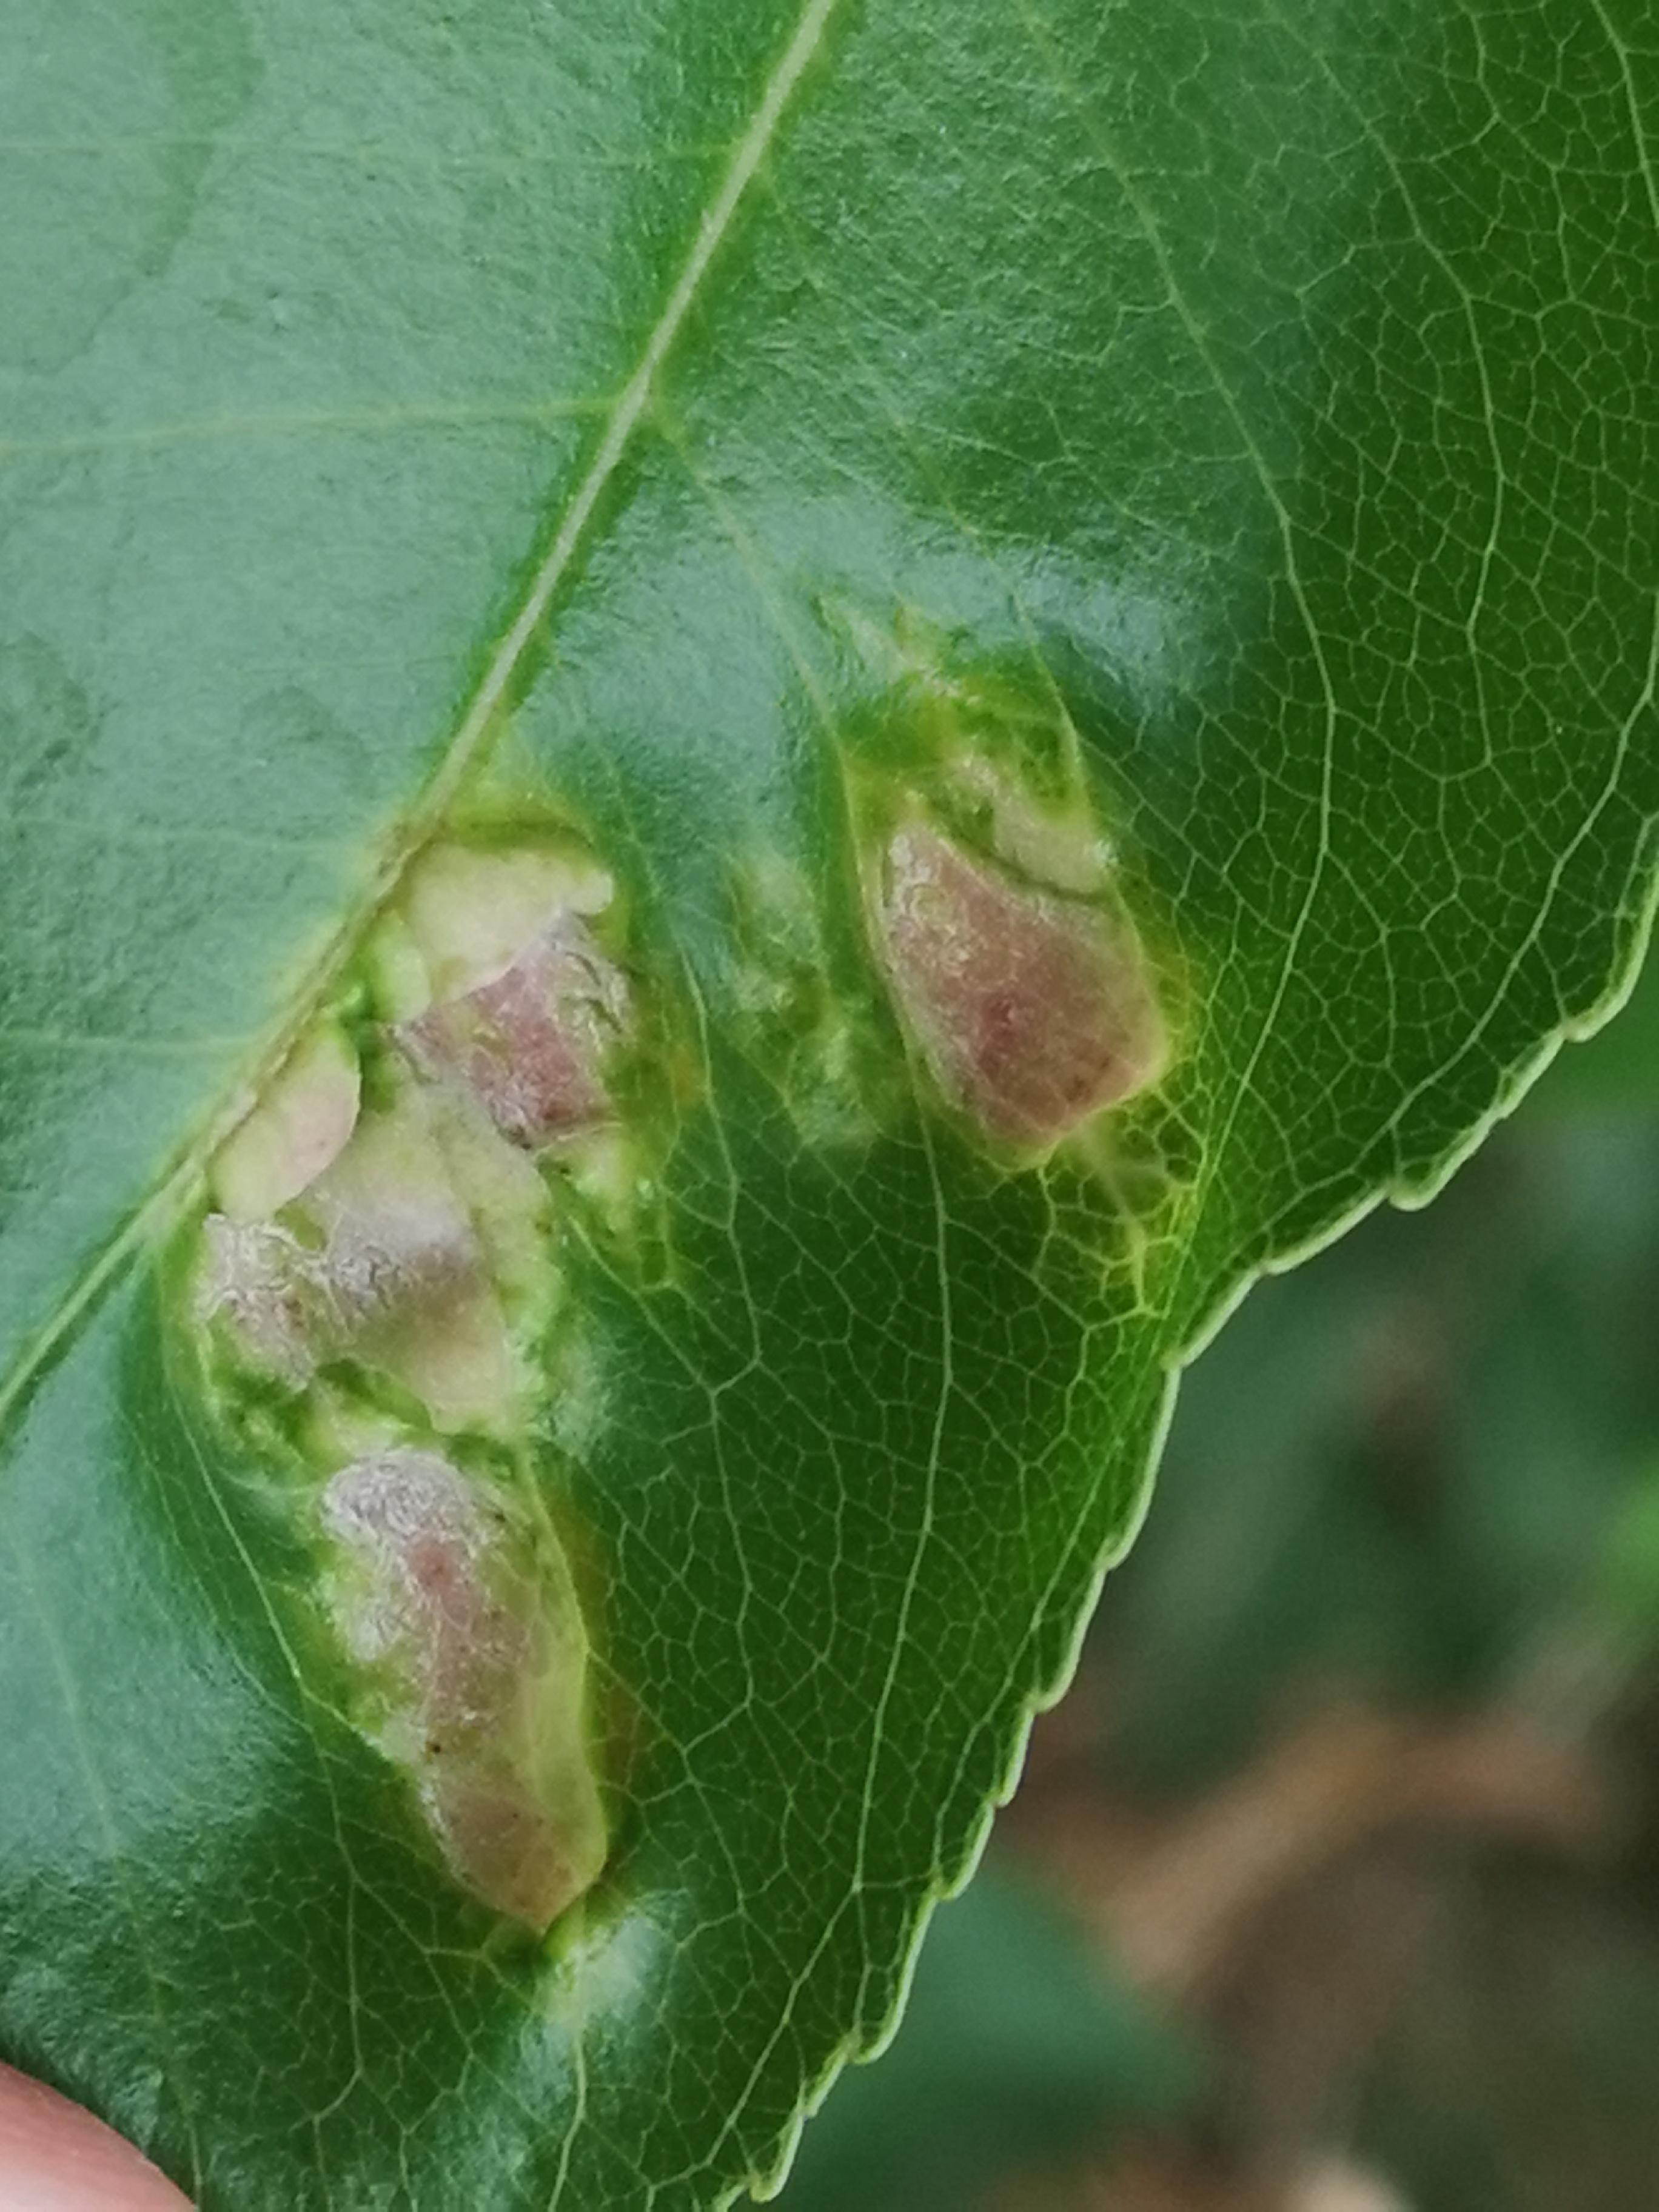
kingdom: Fungi
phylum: Ascomycota
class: Taphrinomycetes
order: Taphrinales
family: Taphrinaceae
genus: Taphrina
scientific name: Taphrina farlowii
